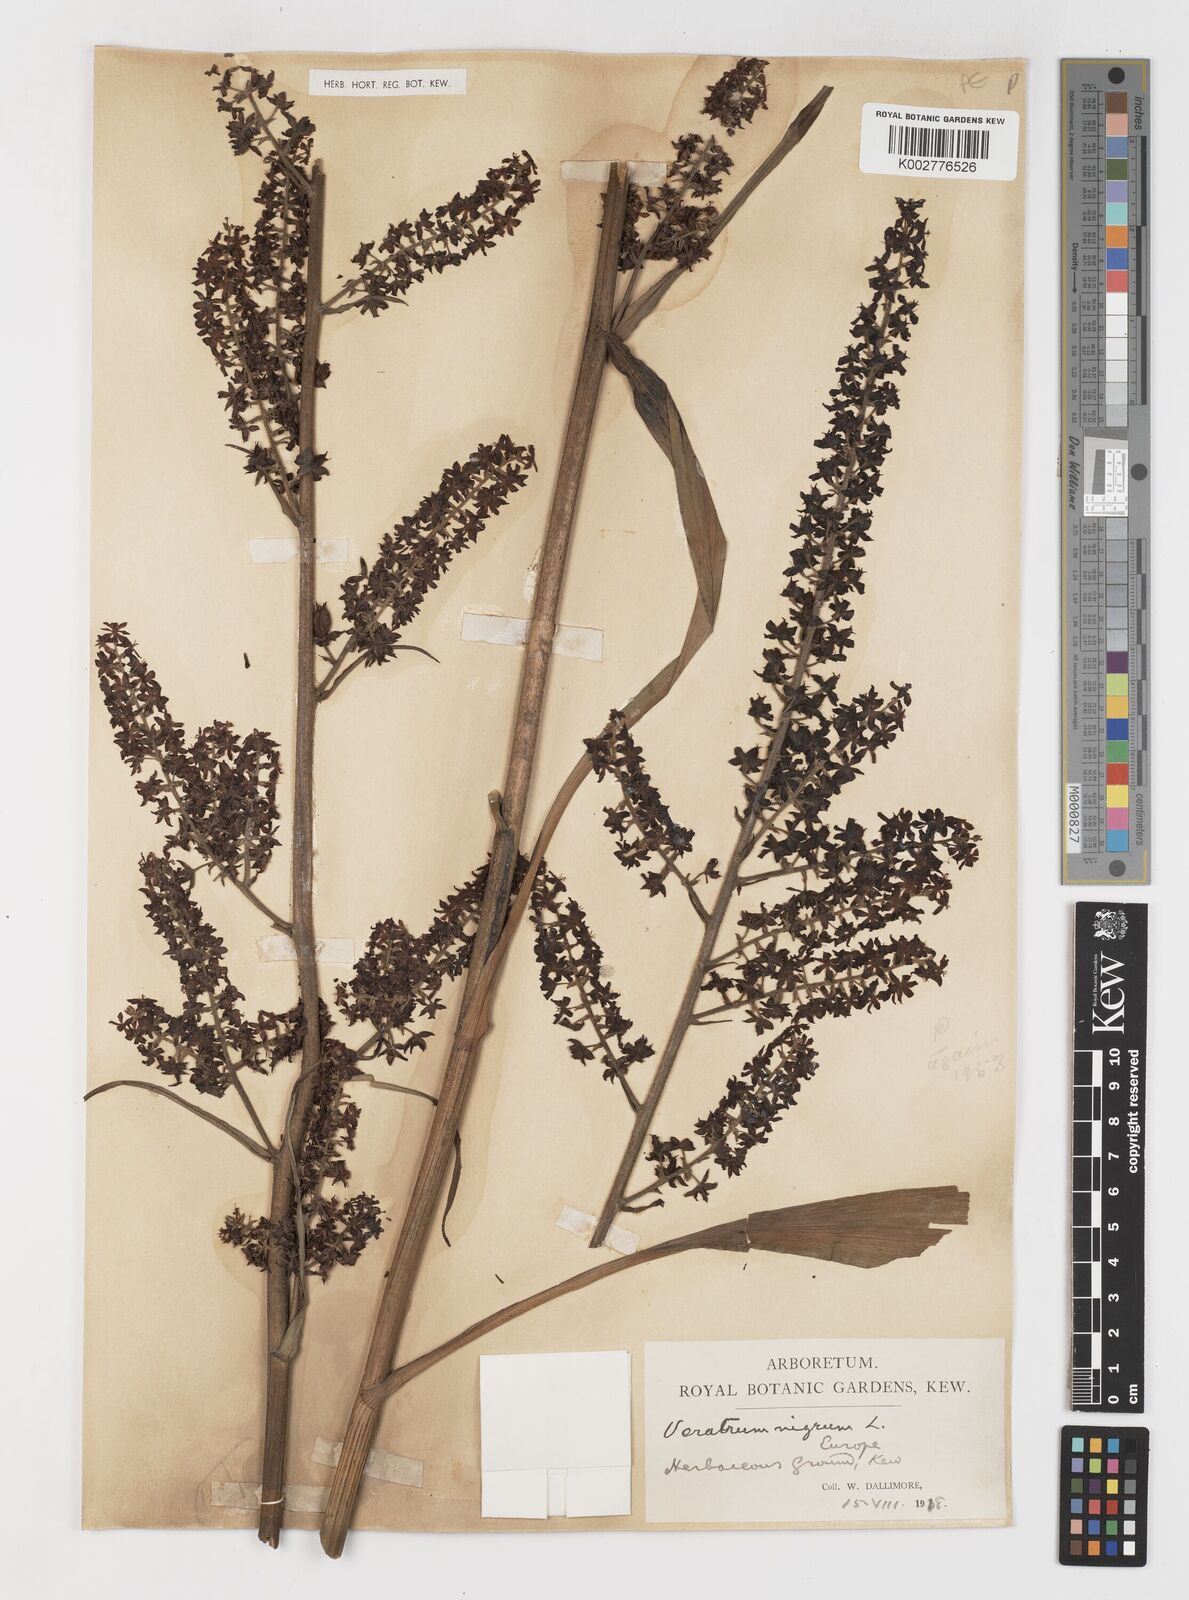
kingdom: Plantae
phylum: Tracheophyta
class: Liliopsida
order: Liliales
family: Melanthiaceae
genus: Veratrum
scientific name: Veratrum nigrum
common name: Black veratrum
